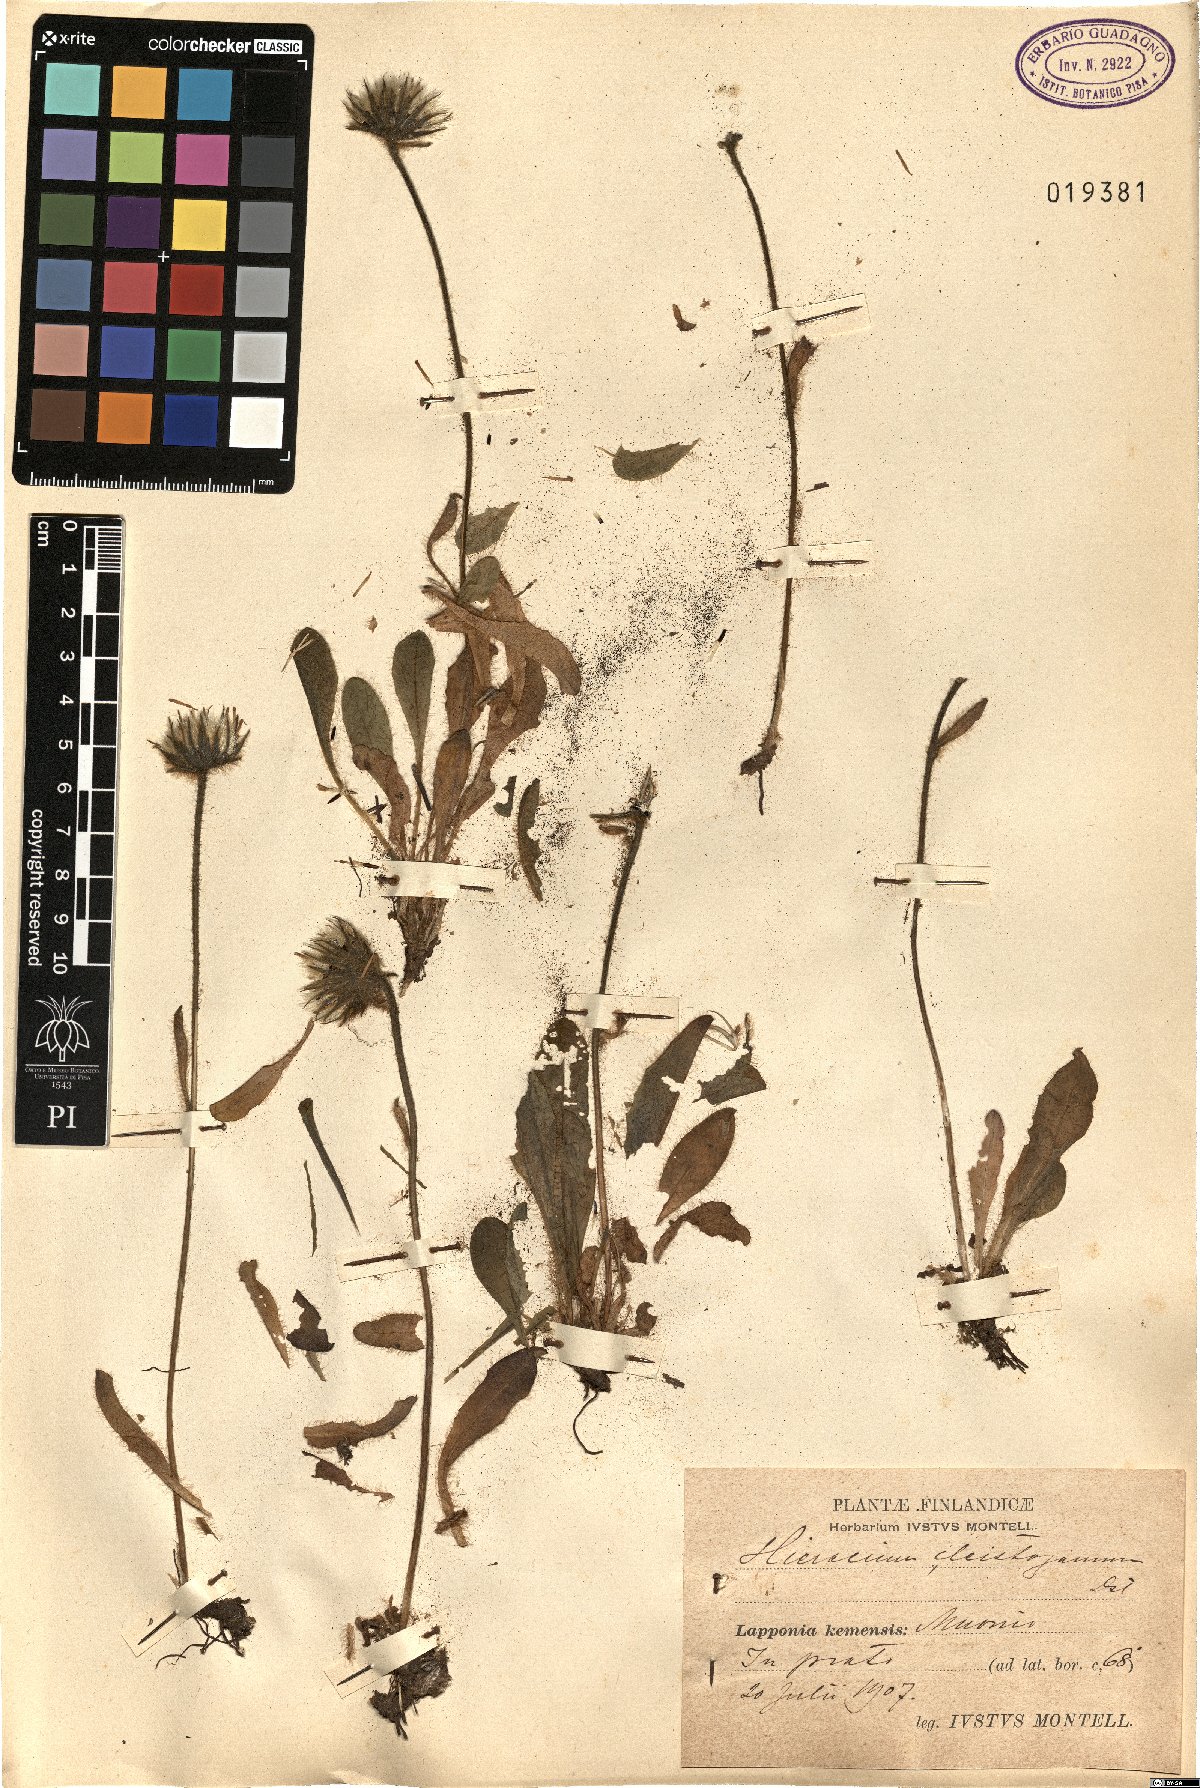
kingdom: Plantae
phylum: Tracheophyta
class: Magnoliopsida
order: Asterales
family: Asteraceae
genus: Hieracium
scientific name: Hieracium cleistogamum
